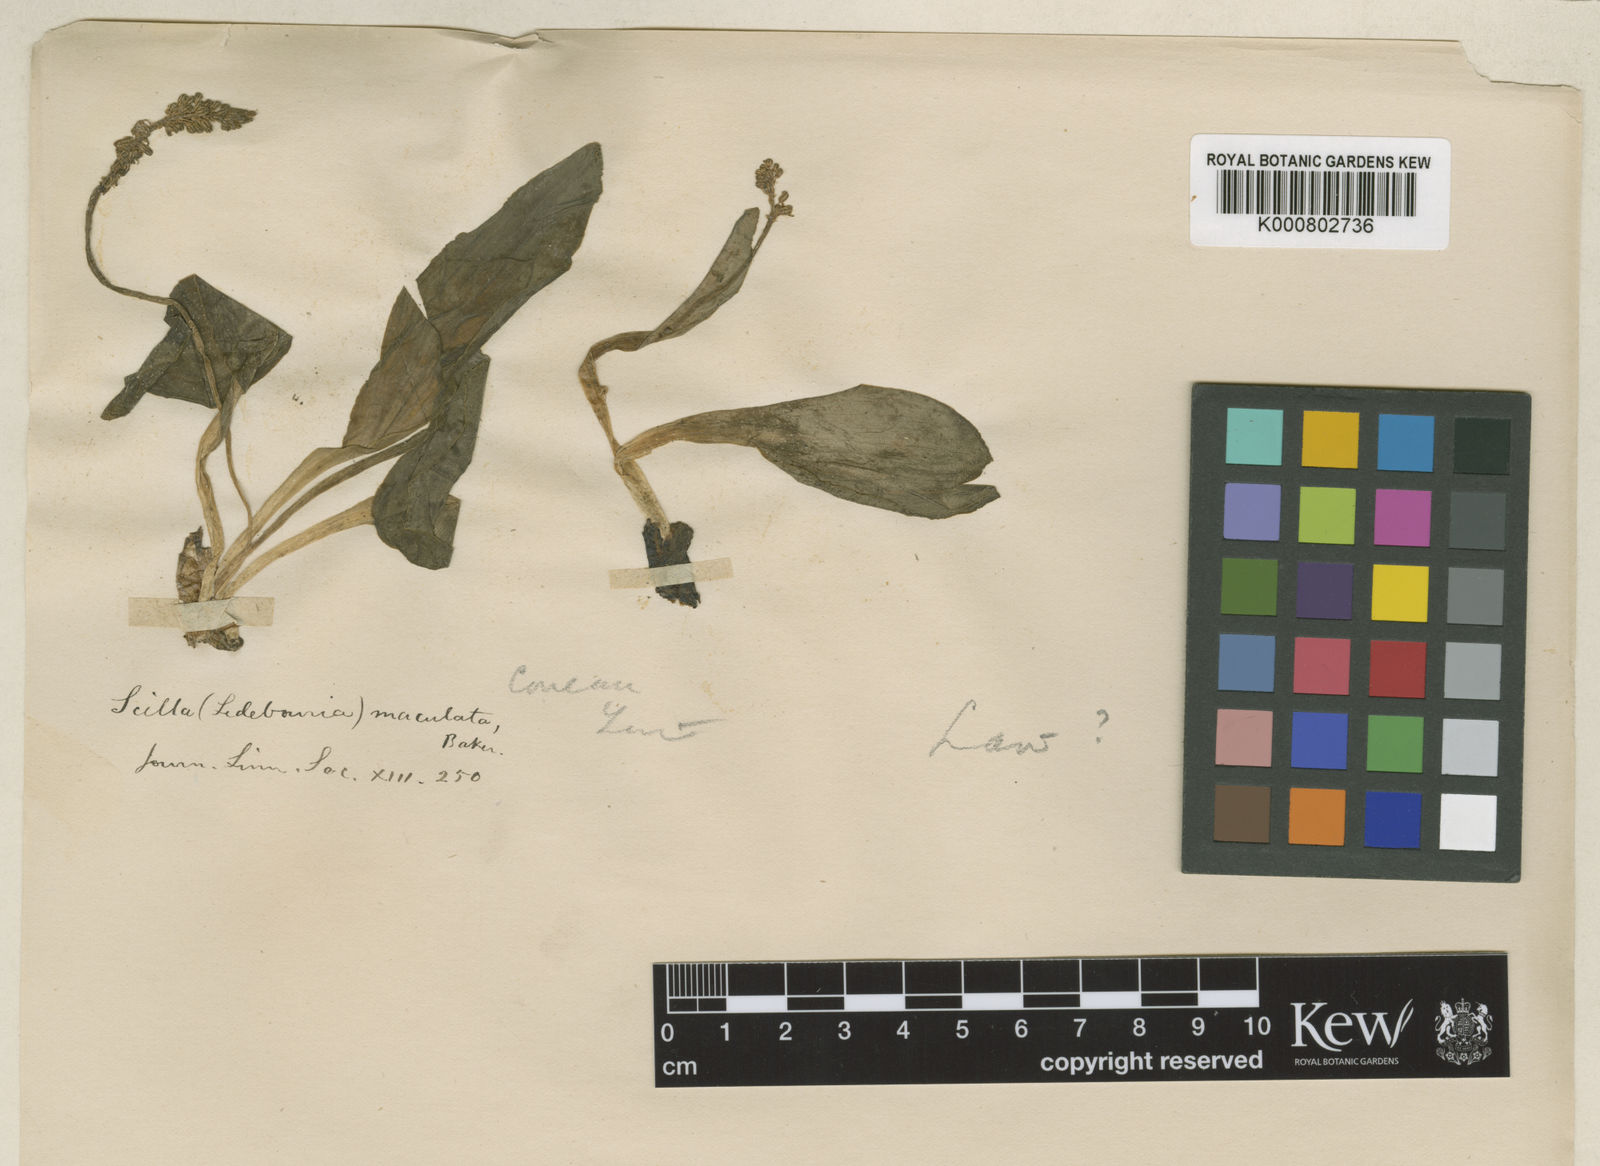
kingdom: Plantae
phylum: Tracheophyta
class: Liliopsida
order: Asparagales
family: Asparagaceae
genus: Ledebouria
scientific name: Ledebouria revoluta
